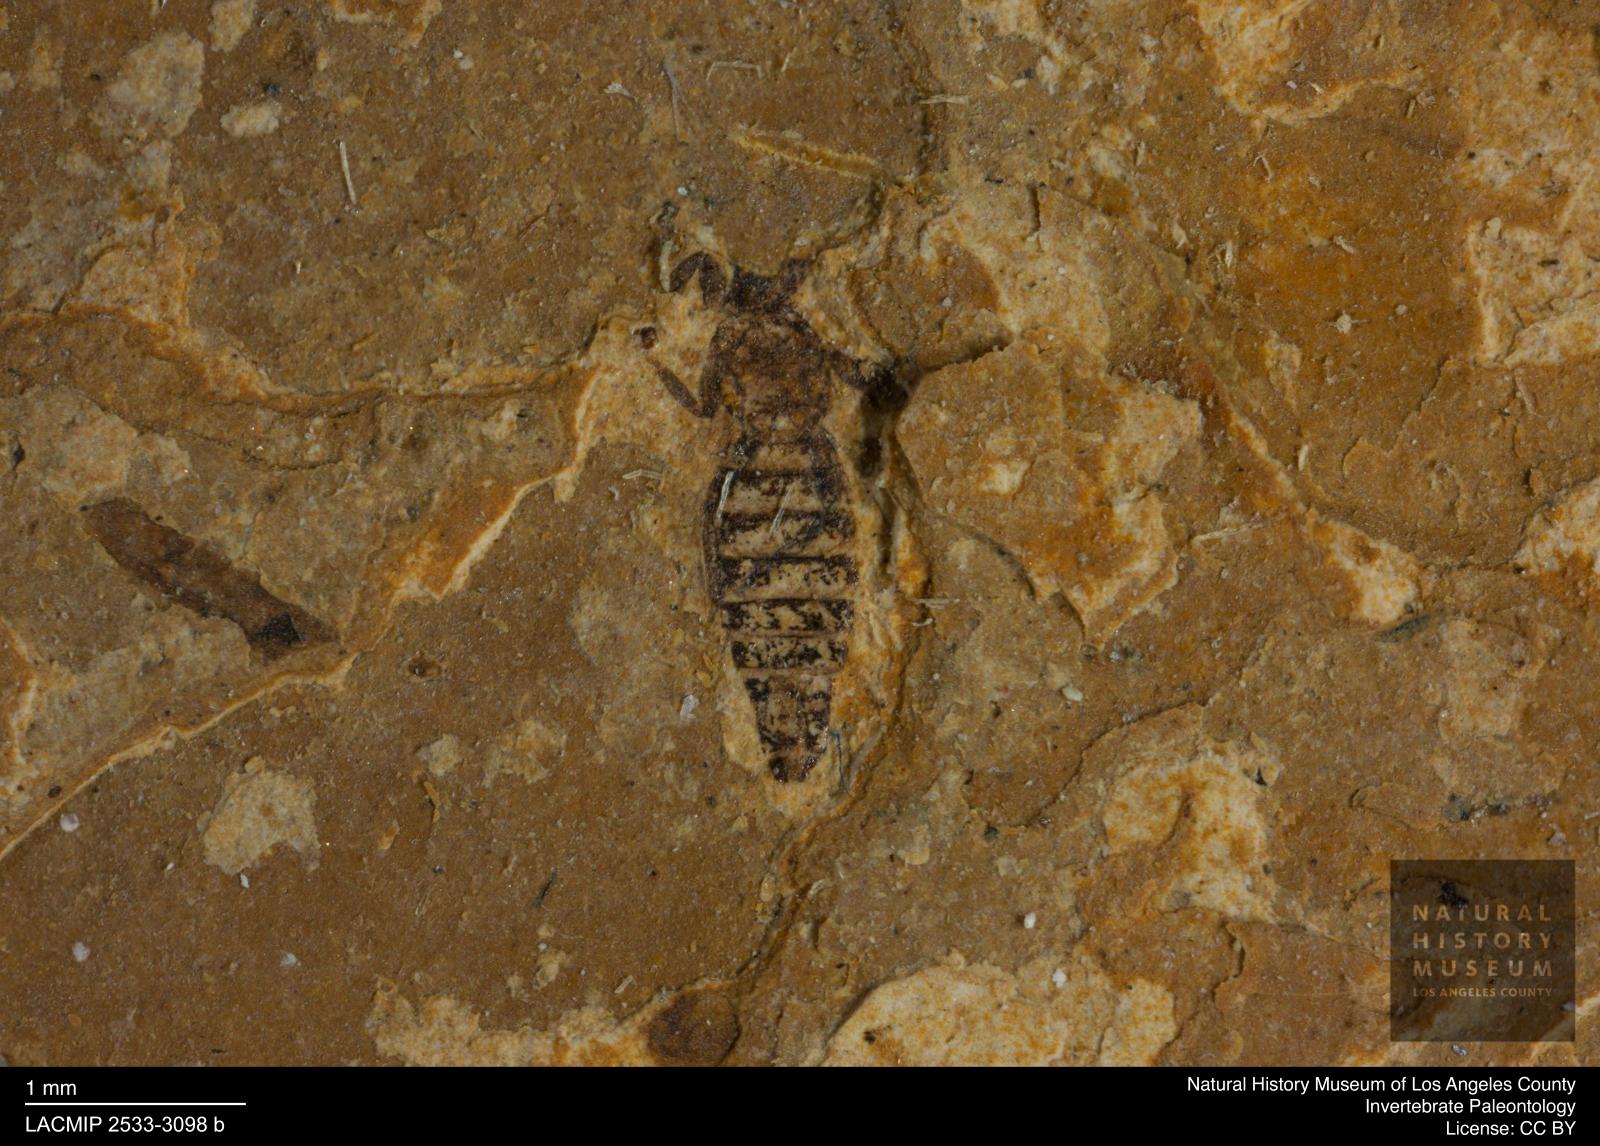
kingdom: Animalia
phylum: Arthropoda
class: Insecta
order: Thysanoptera
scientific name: Thysanoptera
